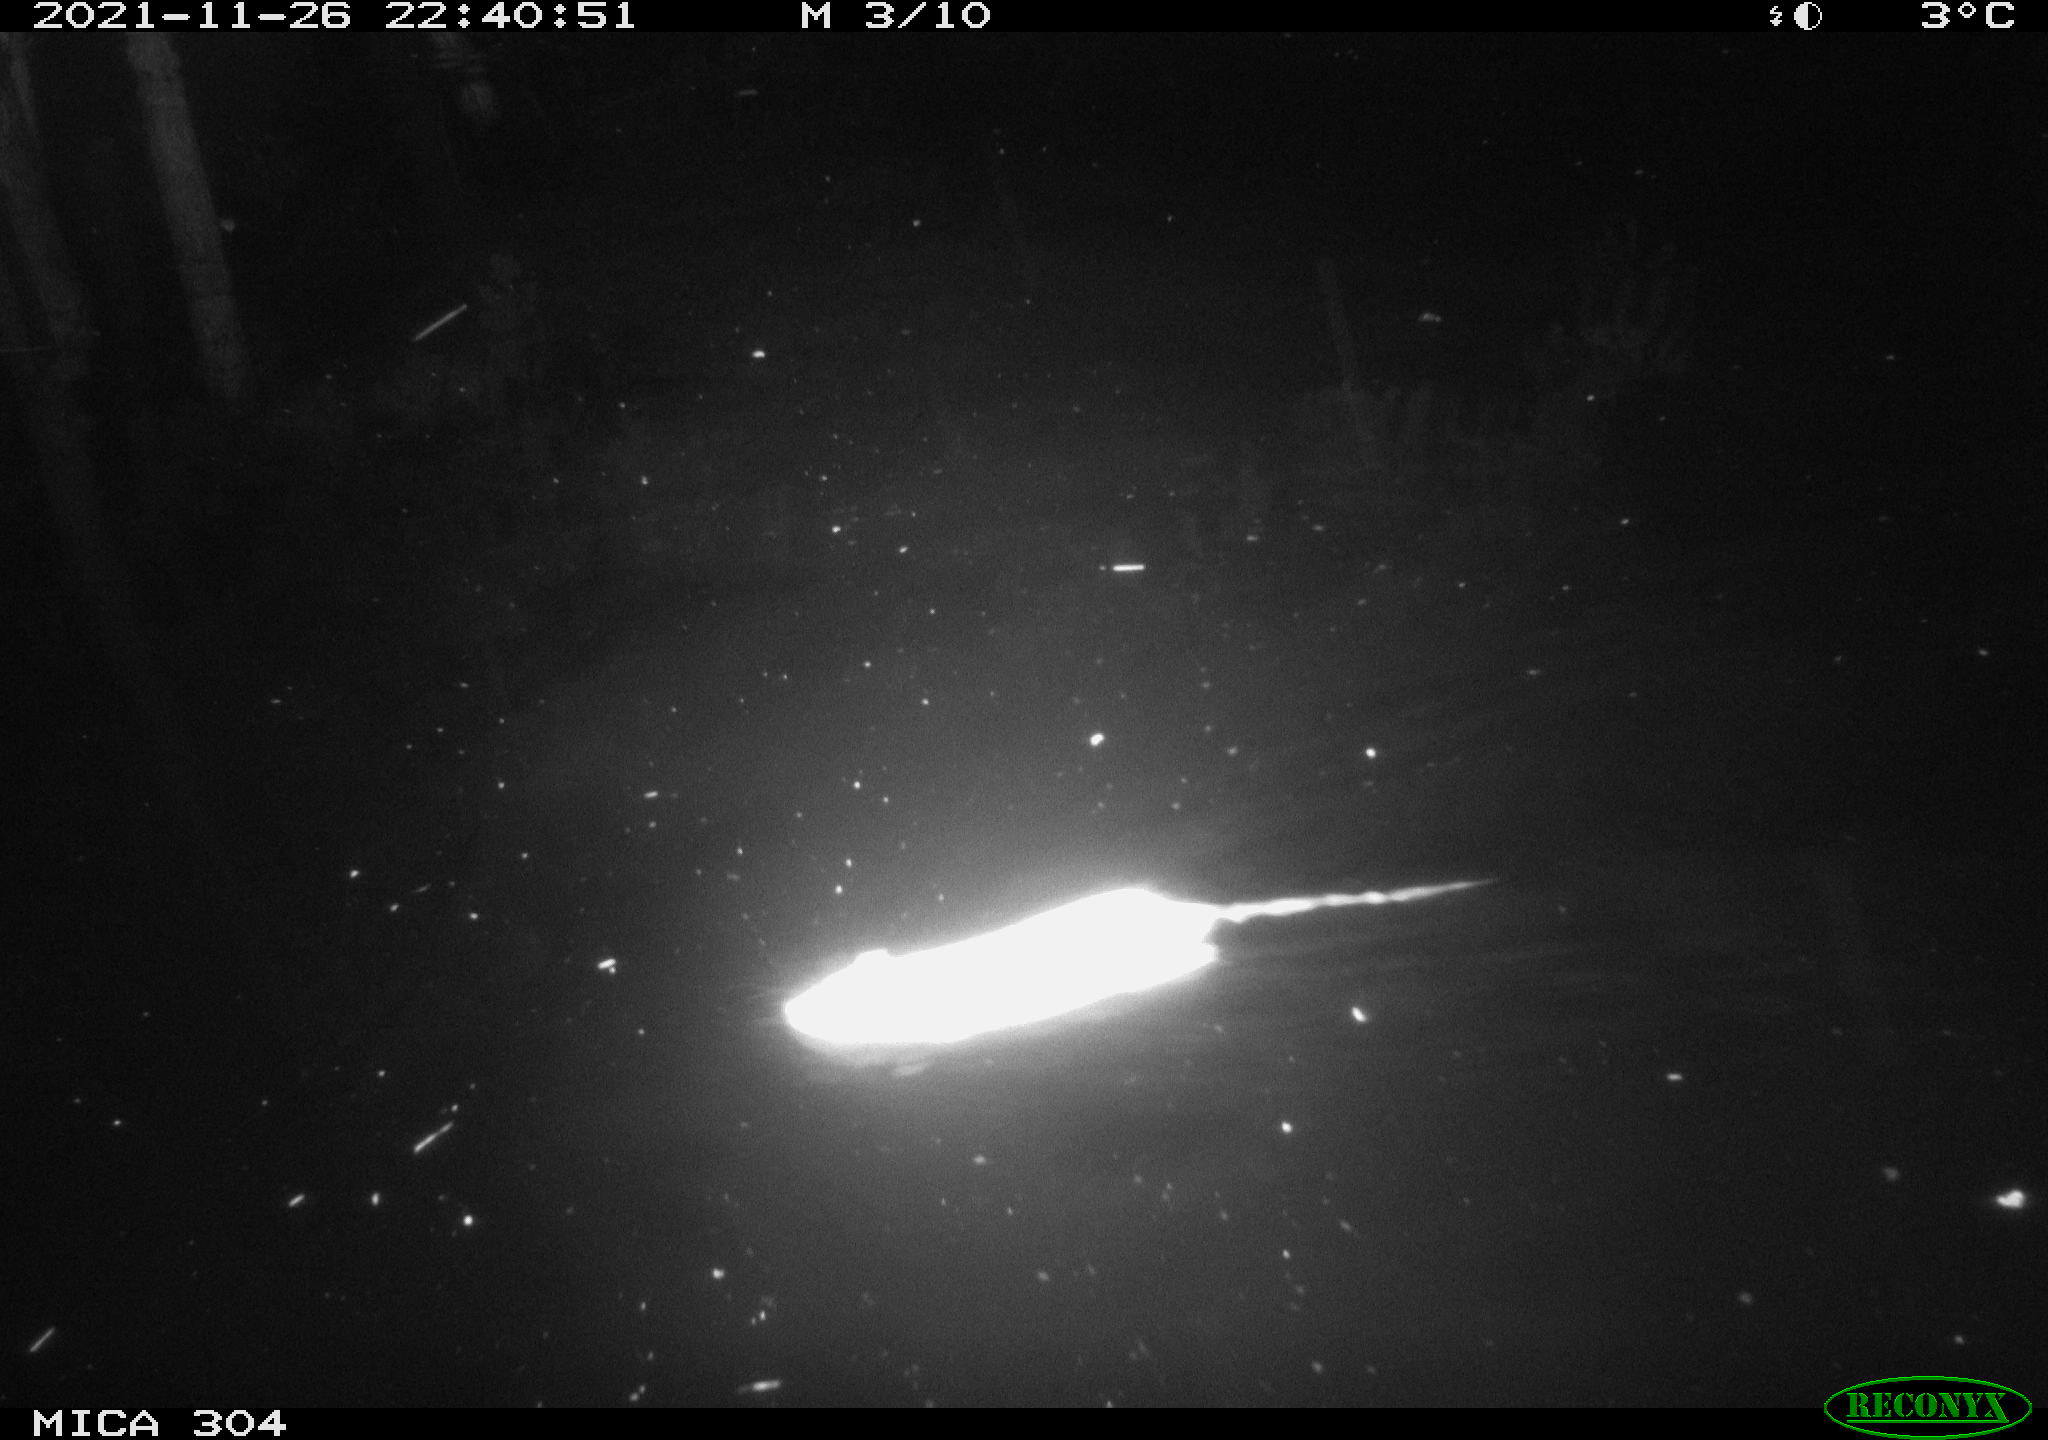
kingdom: Animalia
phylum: Chordata
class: Mammalia
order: Rodentia
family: Muridae
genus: Rattus
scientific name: Rattus norvegicus
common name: Brown rat
